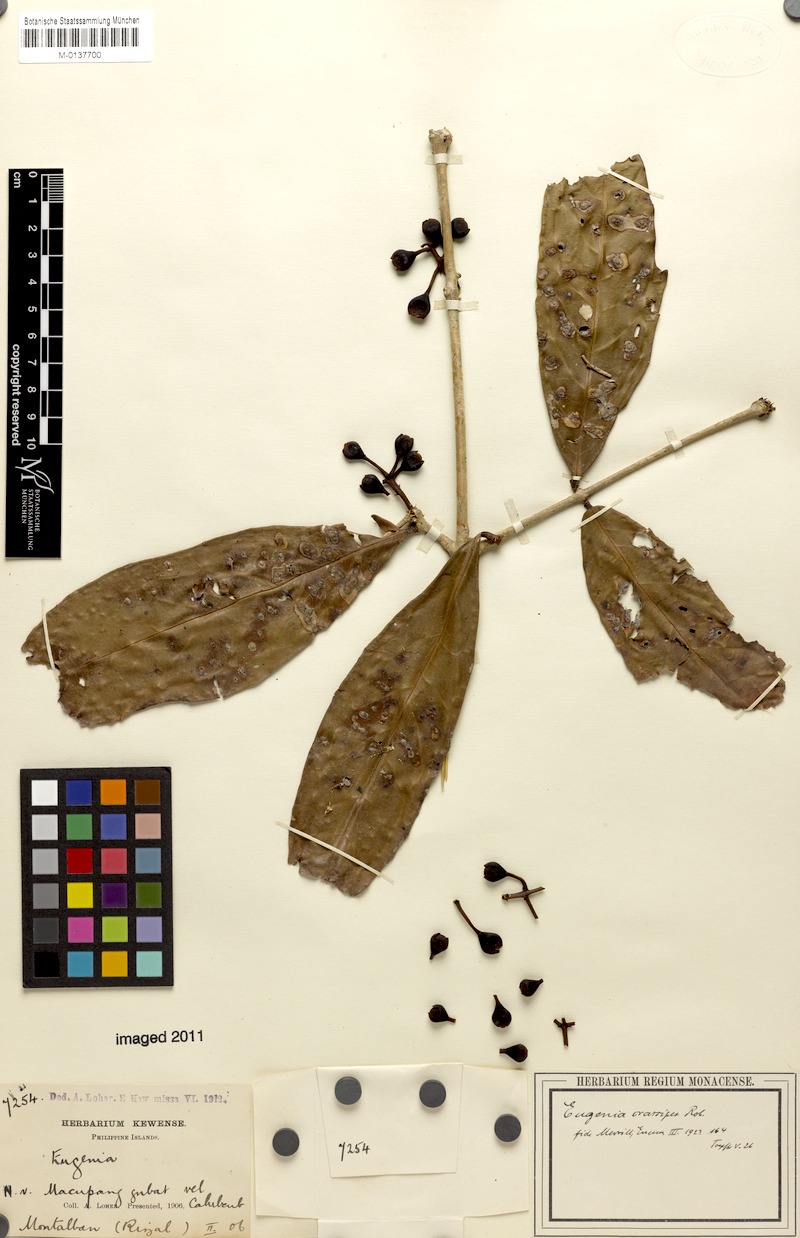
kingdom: Plantae
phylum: Tracheophyta
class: Magnoliopsida
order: Myrtales
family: Myrtaceae
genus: Syzygium
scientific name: Syzygium crassipes
